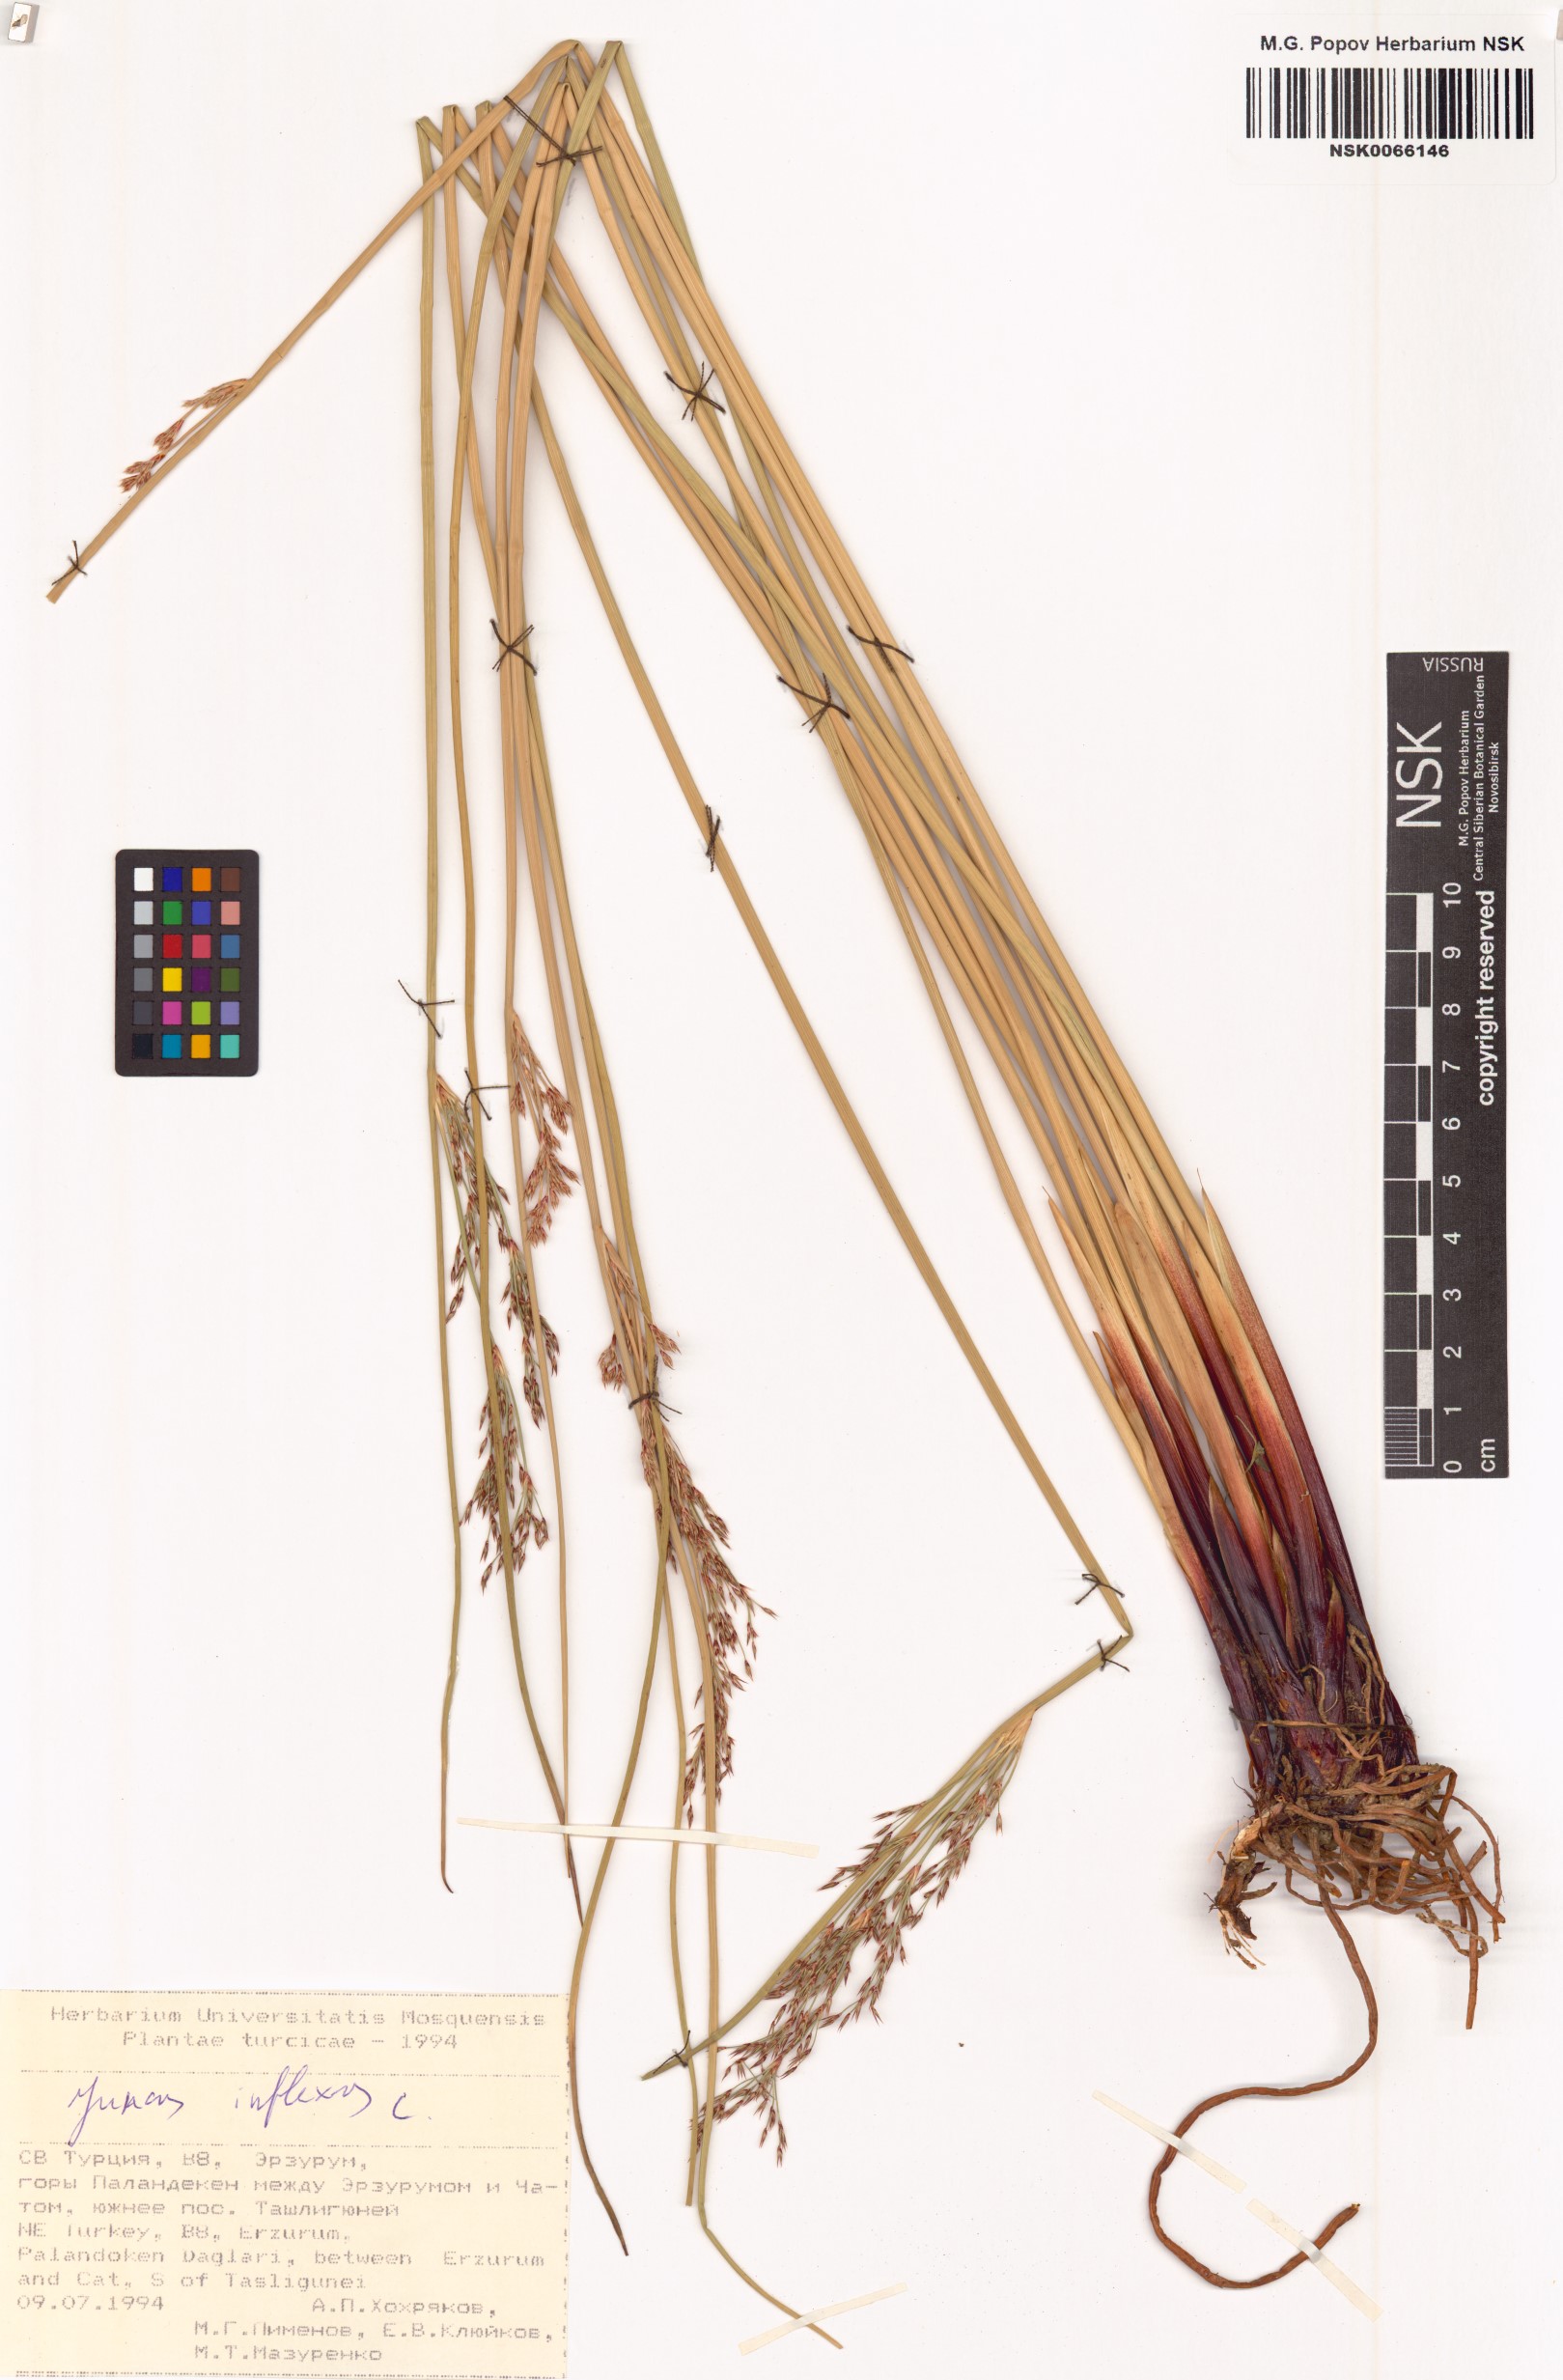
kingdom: Plantae
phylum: Tracheophyta
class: Liliopsida
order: Poales
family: Juncaceae
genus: Juncus
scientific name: Juncus inflexus
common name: Hard rush
